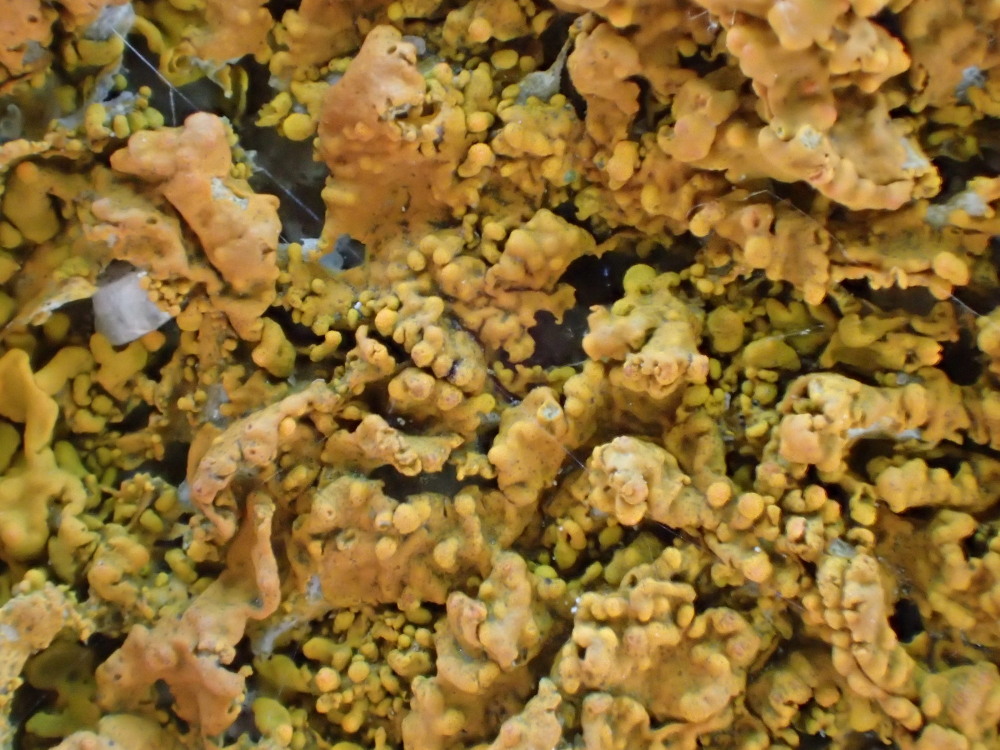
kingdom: Fungi
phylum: Ascomycota
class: Lecanoromycetes
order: Teloschistales
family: Teloschistaceae
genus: Xanthoria
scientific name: Xanthoria calcicola
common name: vortet væggelav
